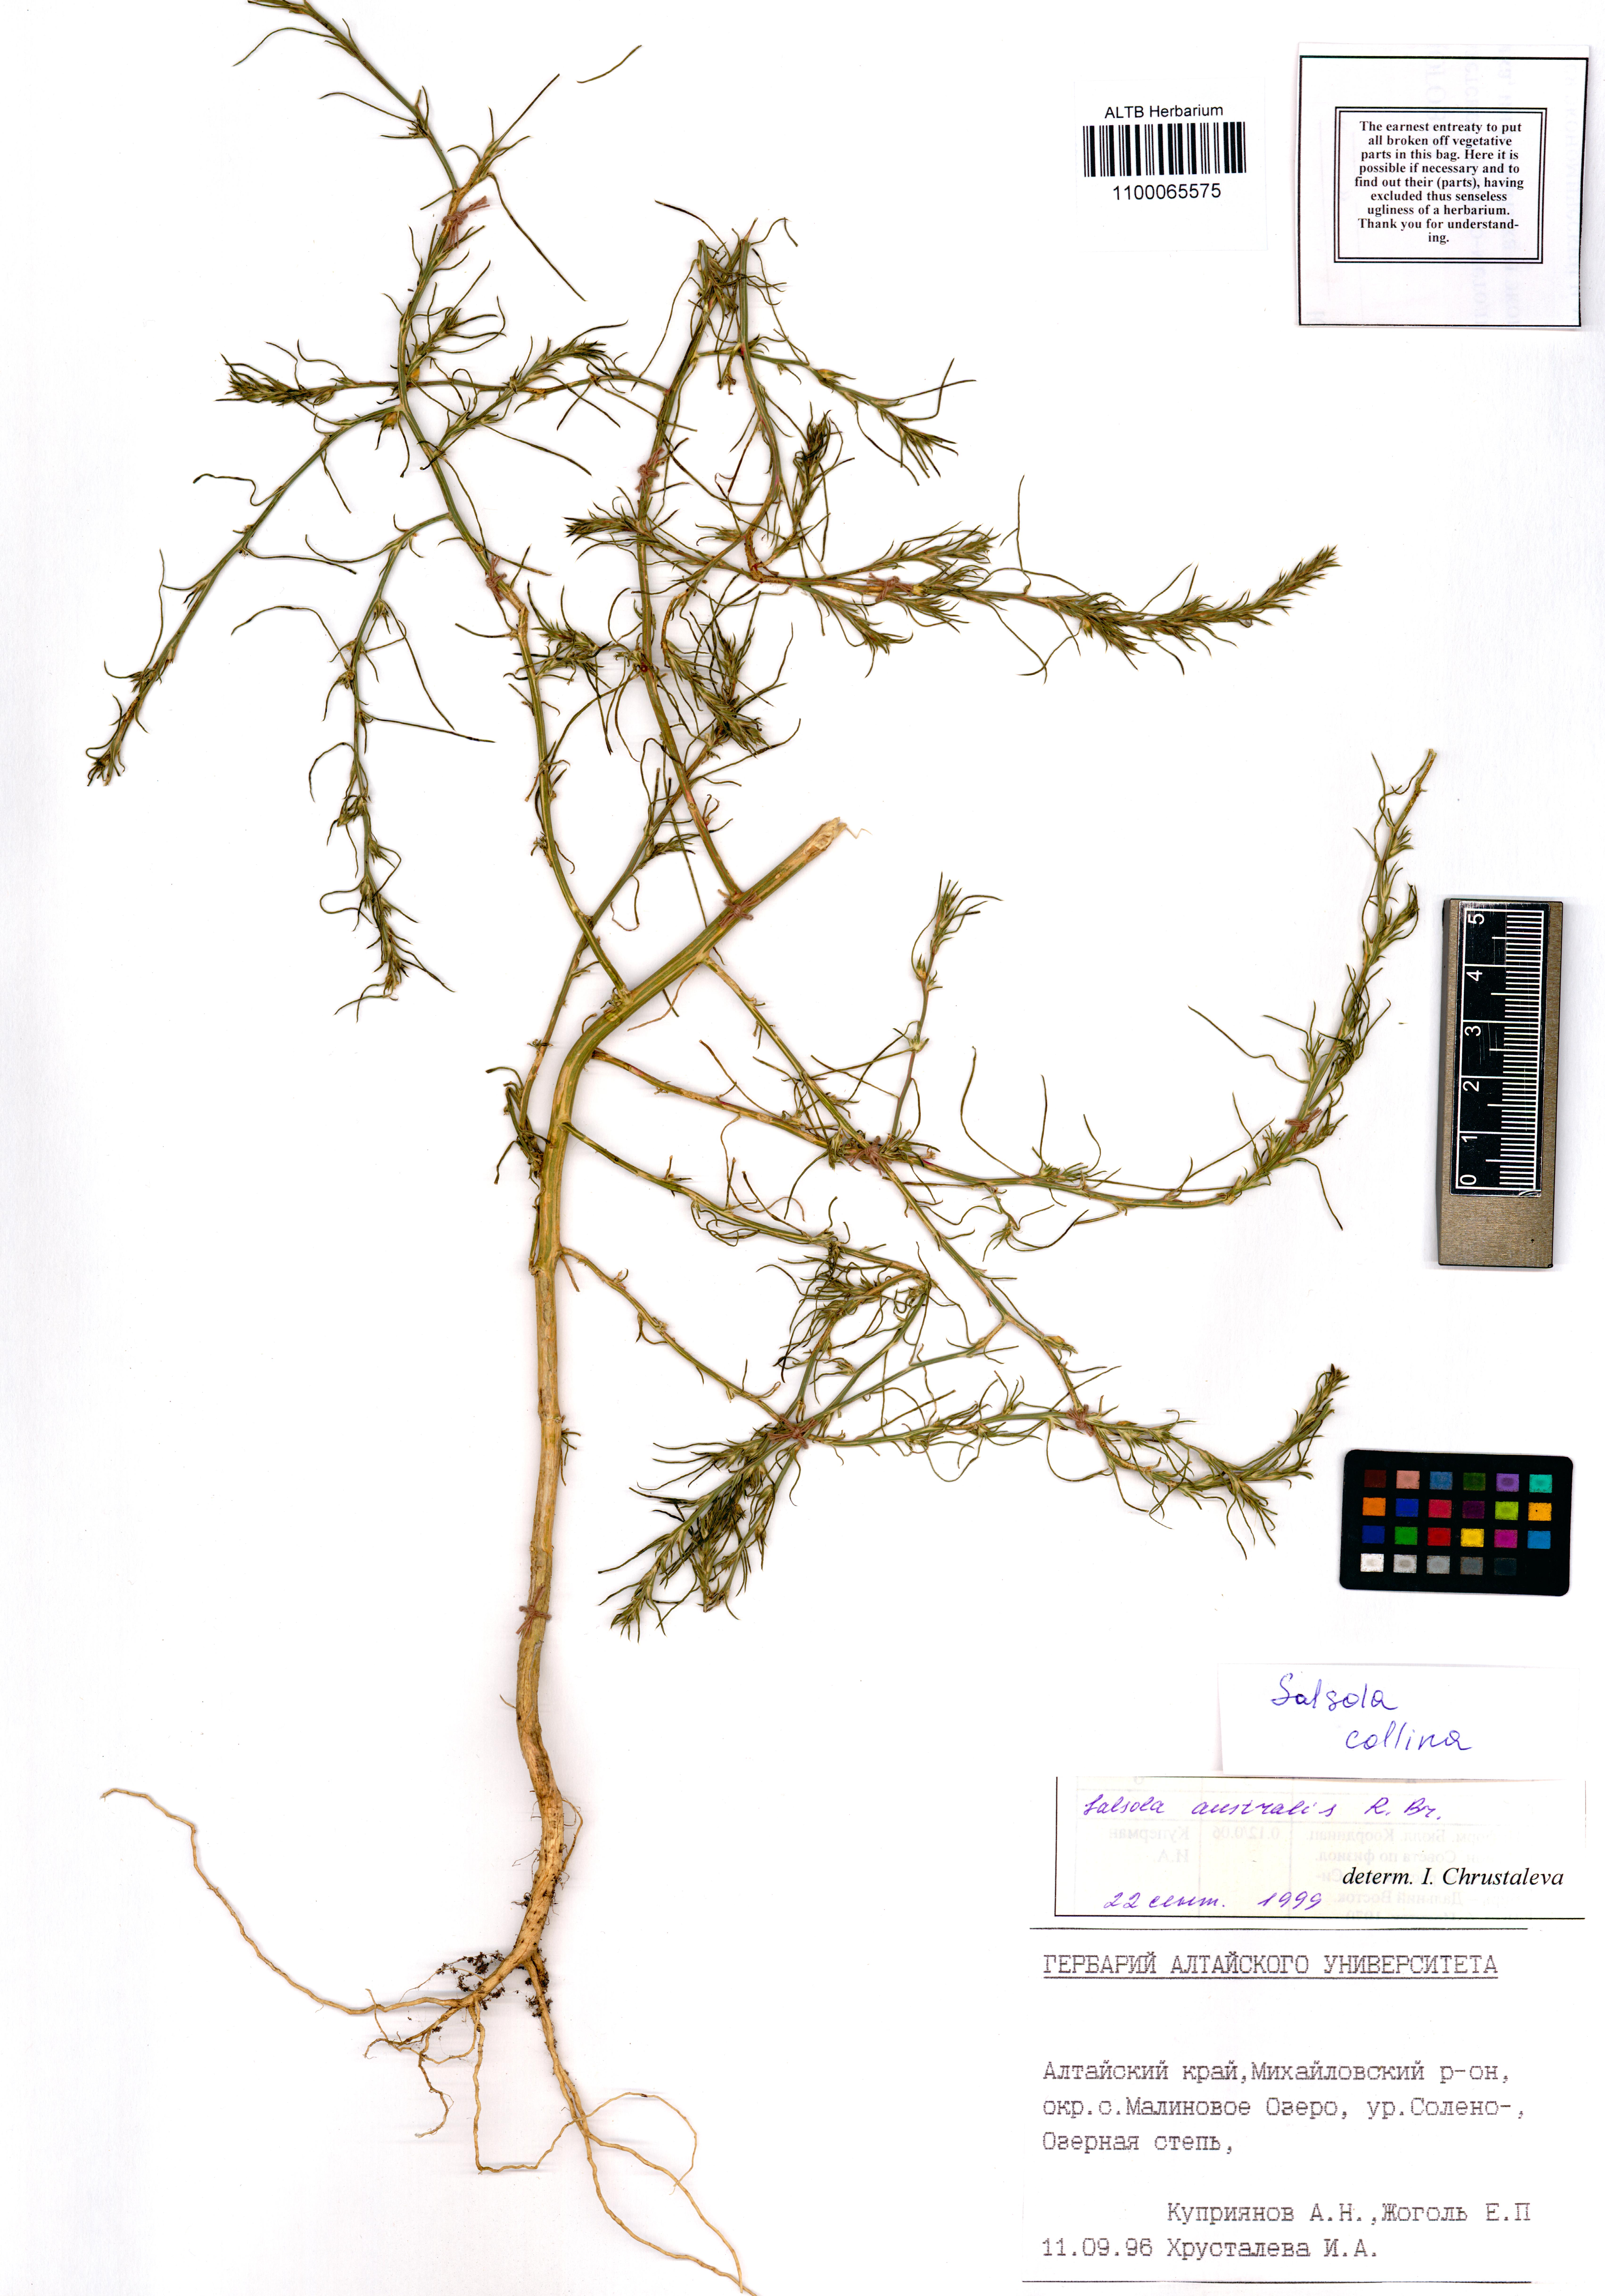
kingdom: Plantae
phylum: Tracheophyta
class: Magnoliopsida
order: Caryophyllales
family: Amaranthaceae
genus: Salsola
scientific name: Salsola collina
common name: Tumbleweed
